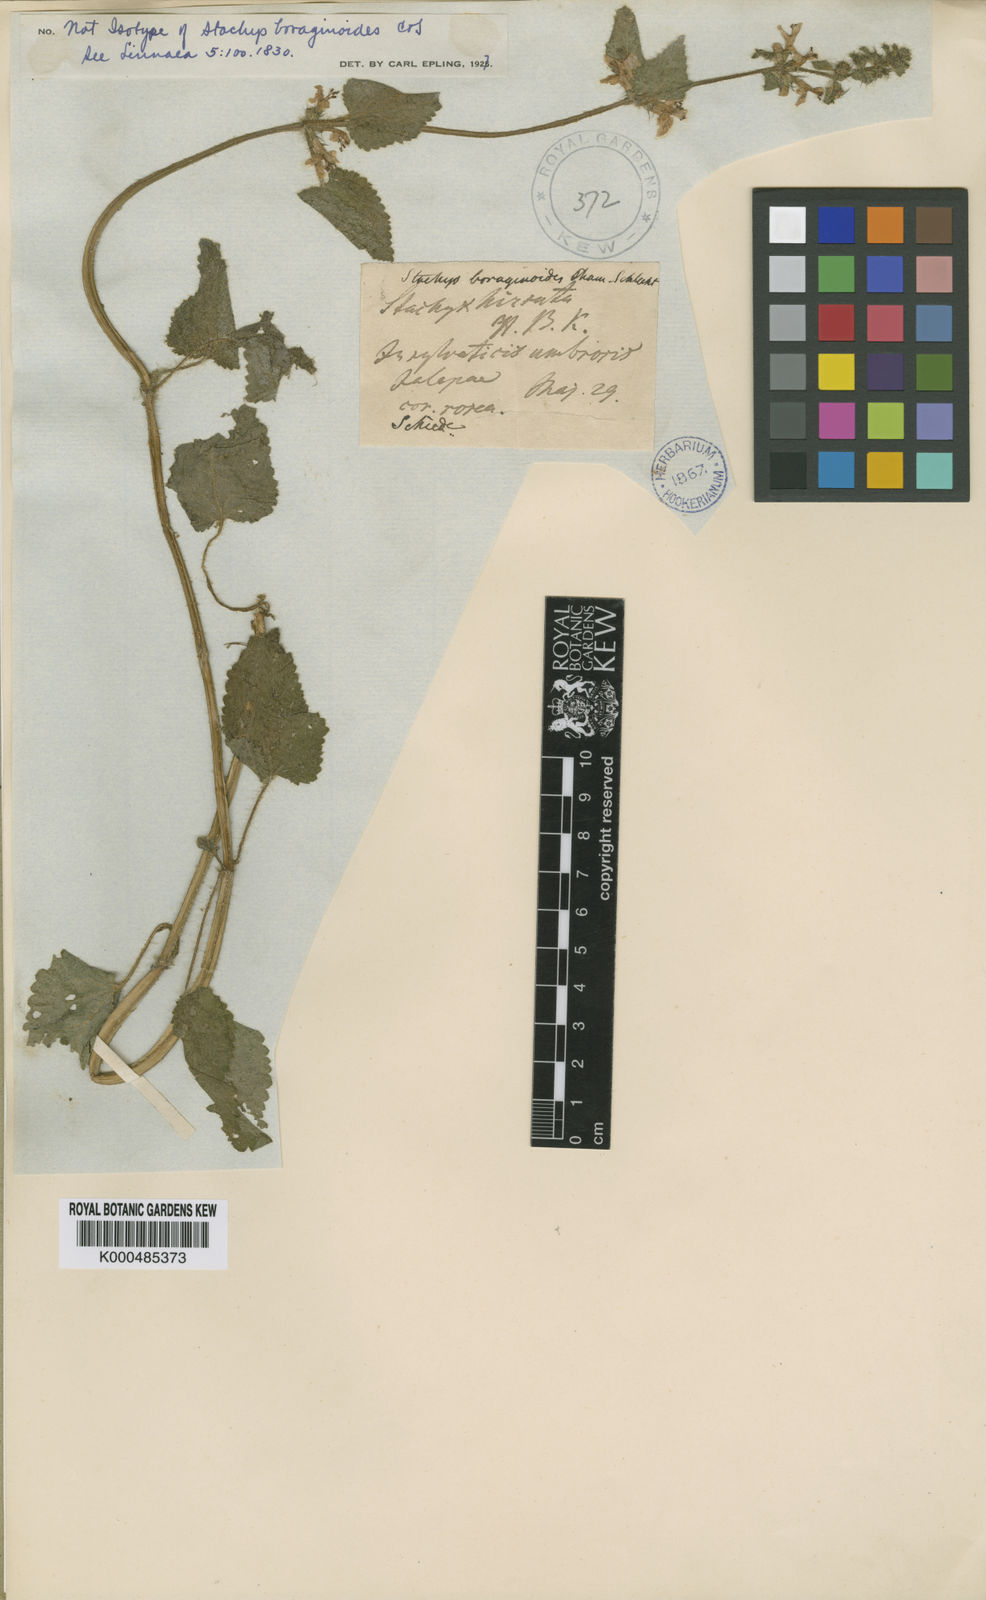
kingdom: Plantae
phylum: Tracheophyta
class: Magnoliopsida
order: Lamiales
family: Lamiaceae
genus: Stachys
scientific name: Stachys boraginoides
